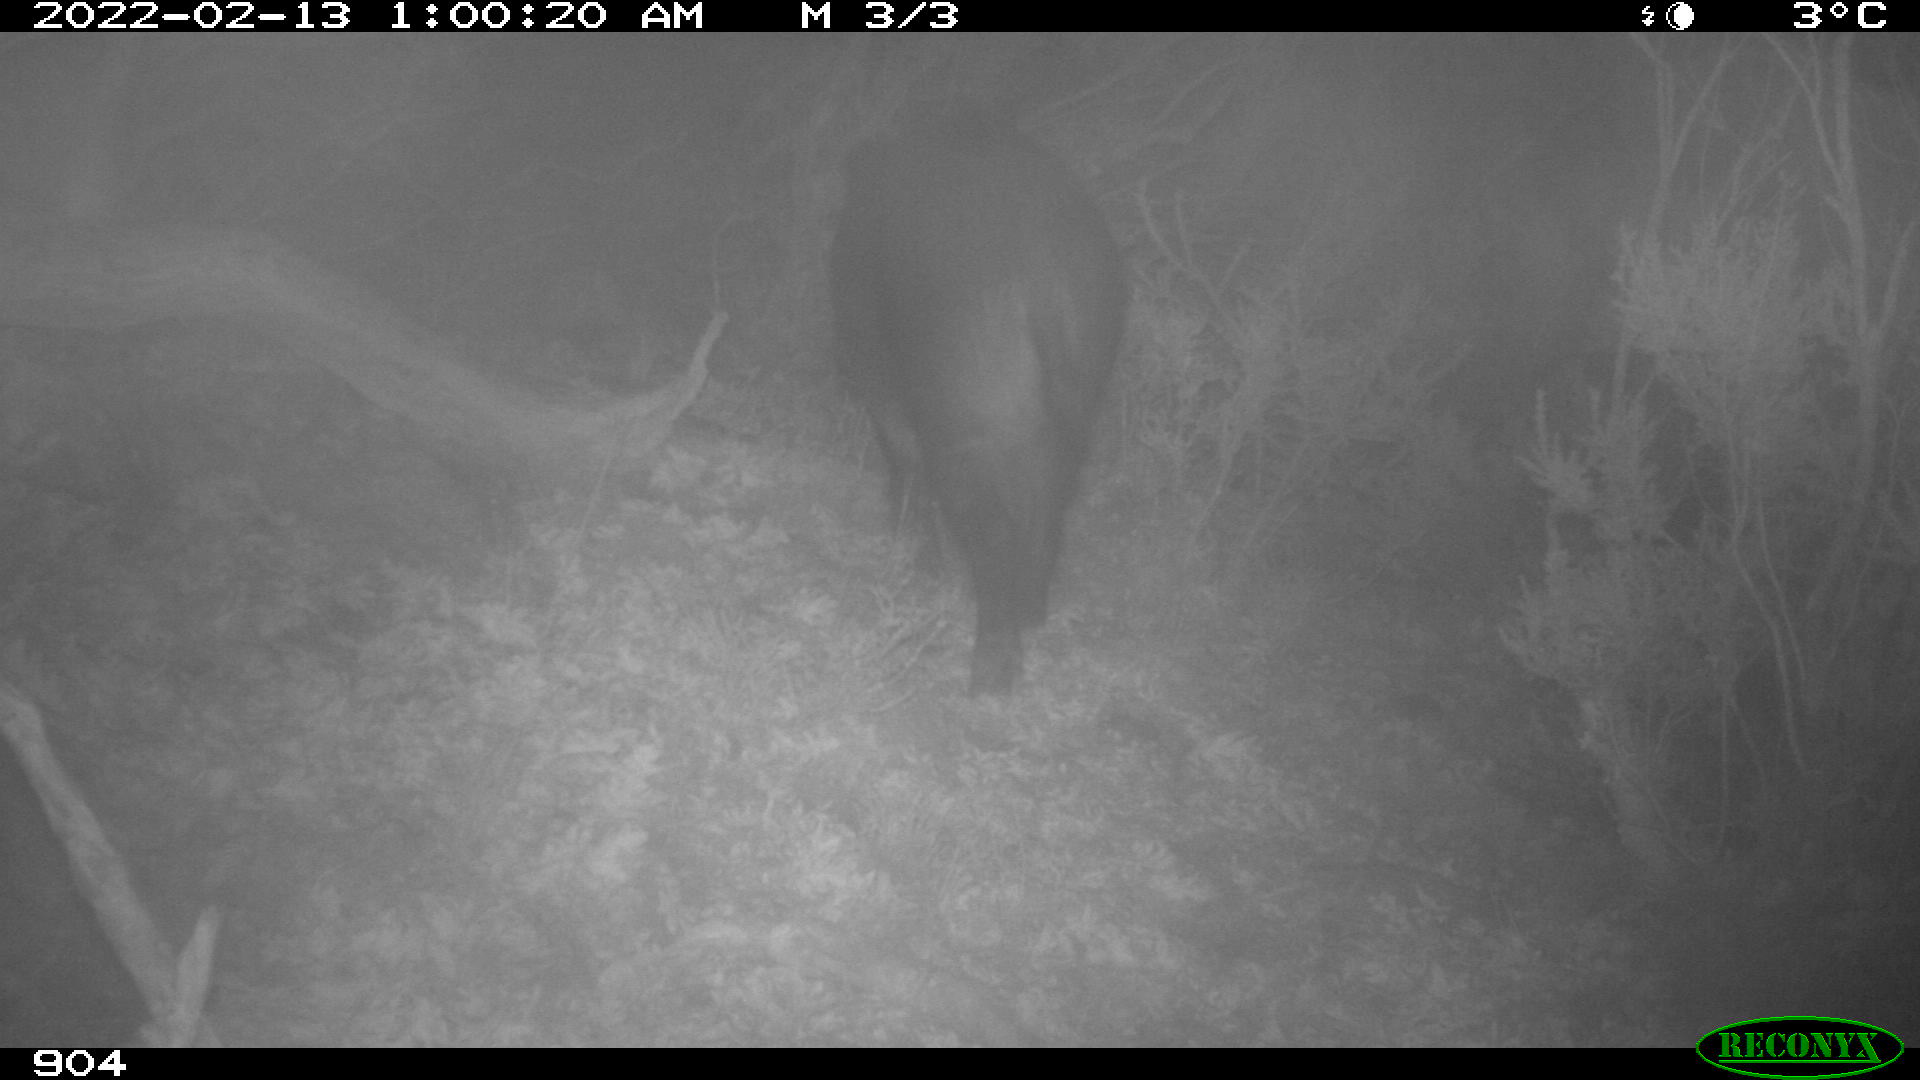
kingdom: Animalia
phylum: Chordata
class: Mammalia
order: Artiodactyla
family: Suidae
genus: Sus
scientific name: Sus scrofa
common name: Wild boar
